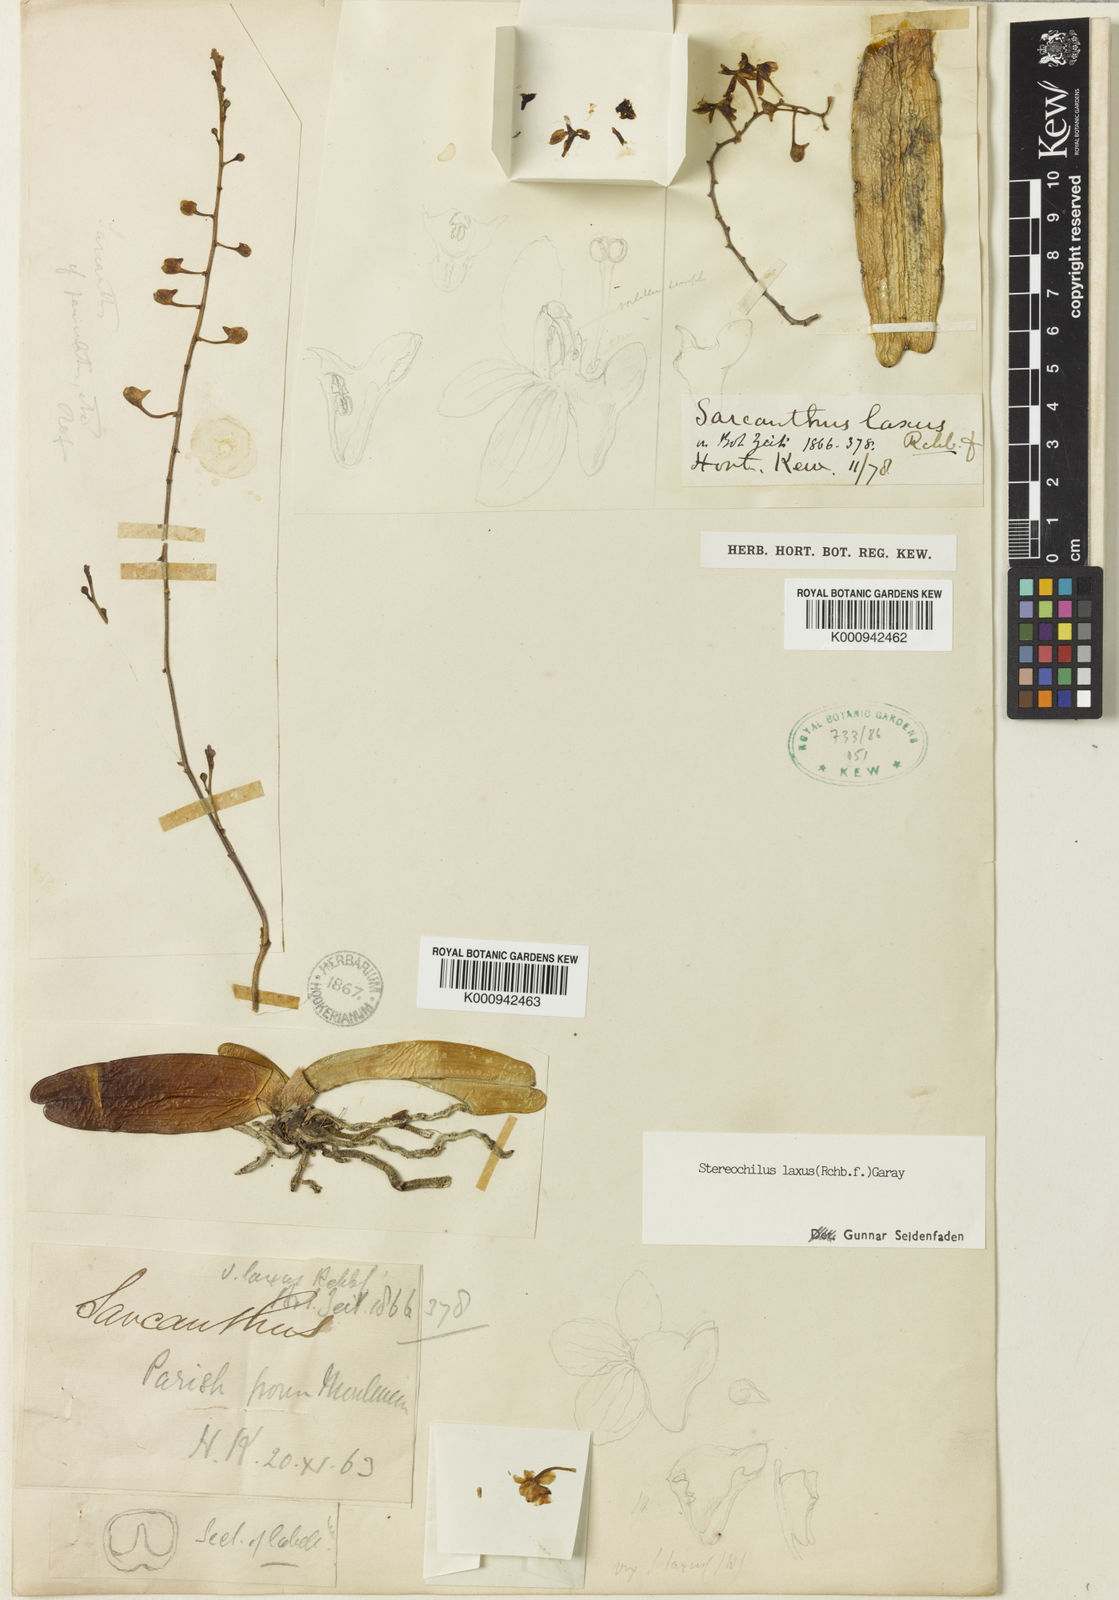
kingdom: Plantae
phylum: Tracheophyta
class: Liliopsida
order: Asparagales
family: Orchidaceae
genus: Stereochilus
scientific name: Stereochilus laxus
